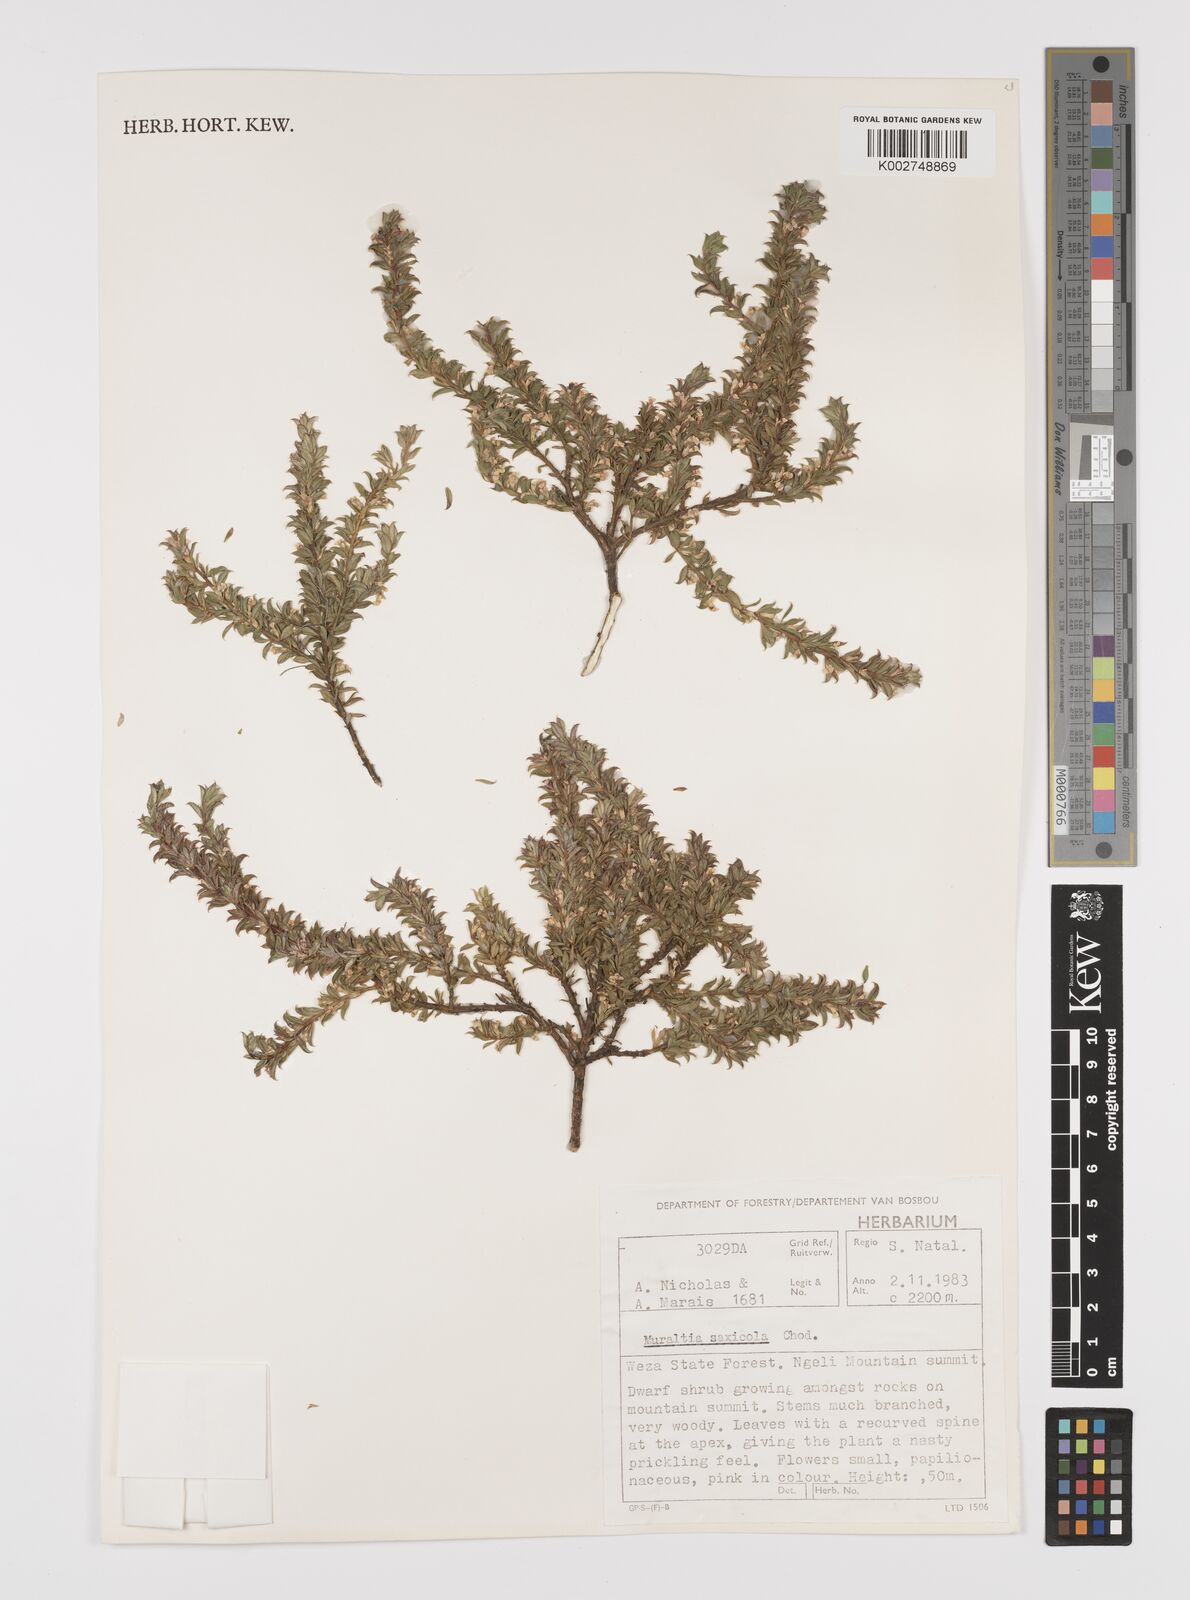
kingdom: Plantae
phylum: Tracheophyta
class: Magnoliopsida
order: Fabales
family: Polygalaceae
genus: Muraltia
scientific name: Muraltia saxicola
